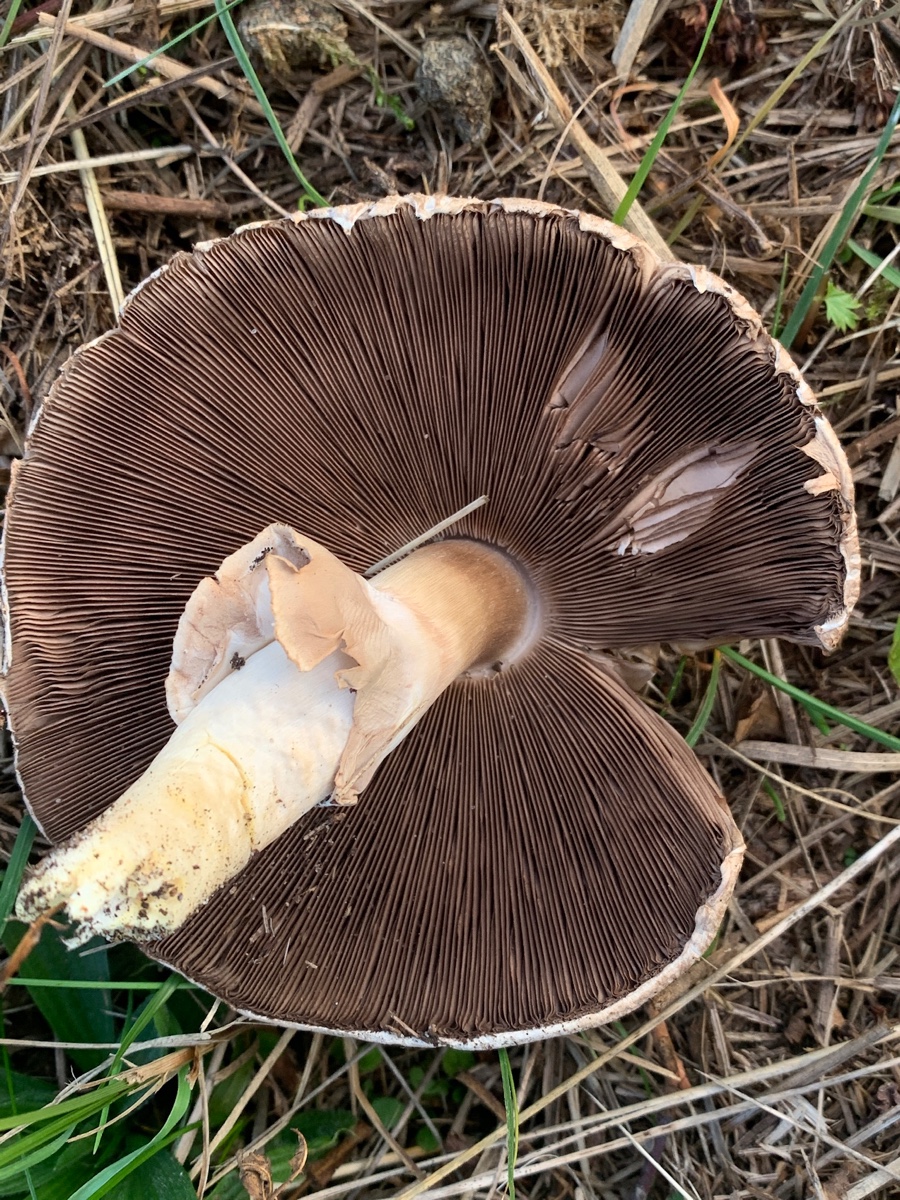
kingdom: Fungi
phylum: Basidiomycota
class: Agaricomycetes
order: Agaricales
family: Agaricaceae
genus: Agaricus
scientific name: Agaricus phaeolepidotus
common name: agerhøne-champignon
